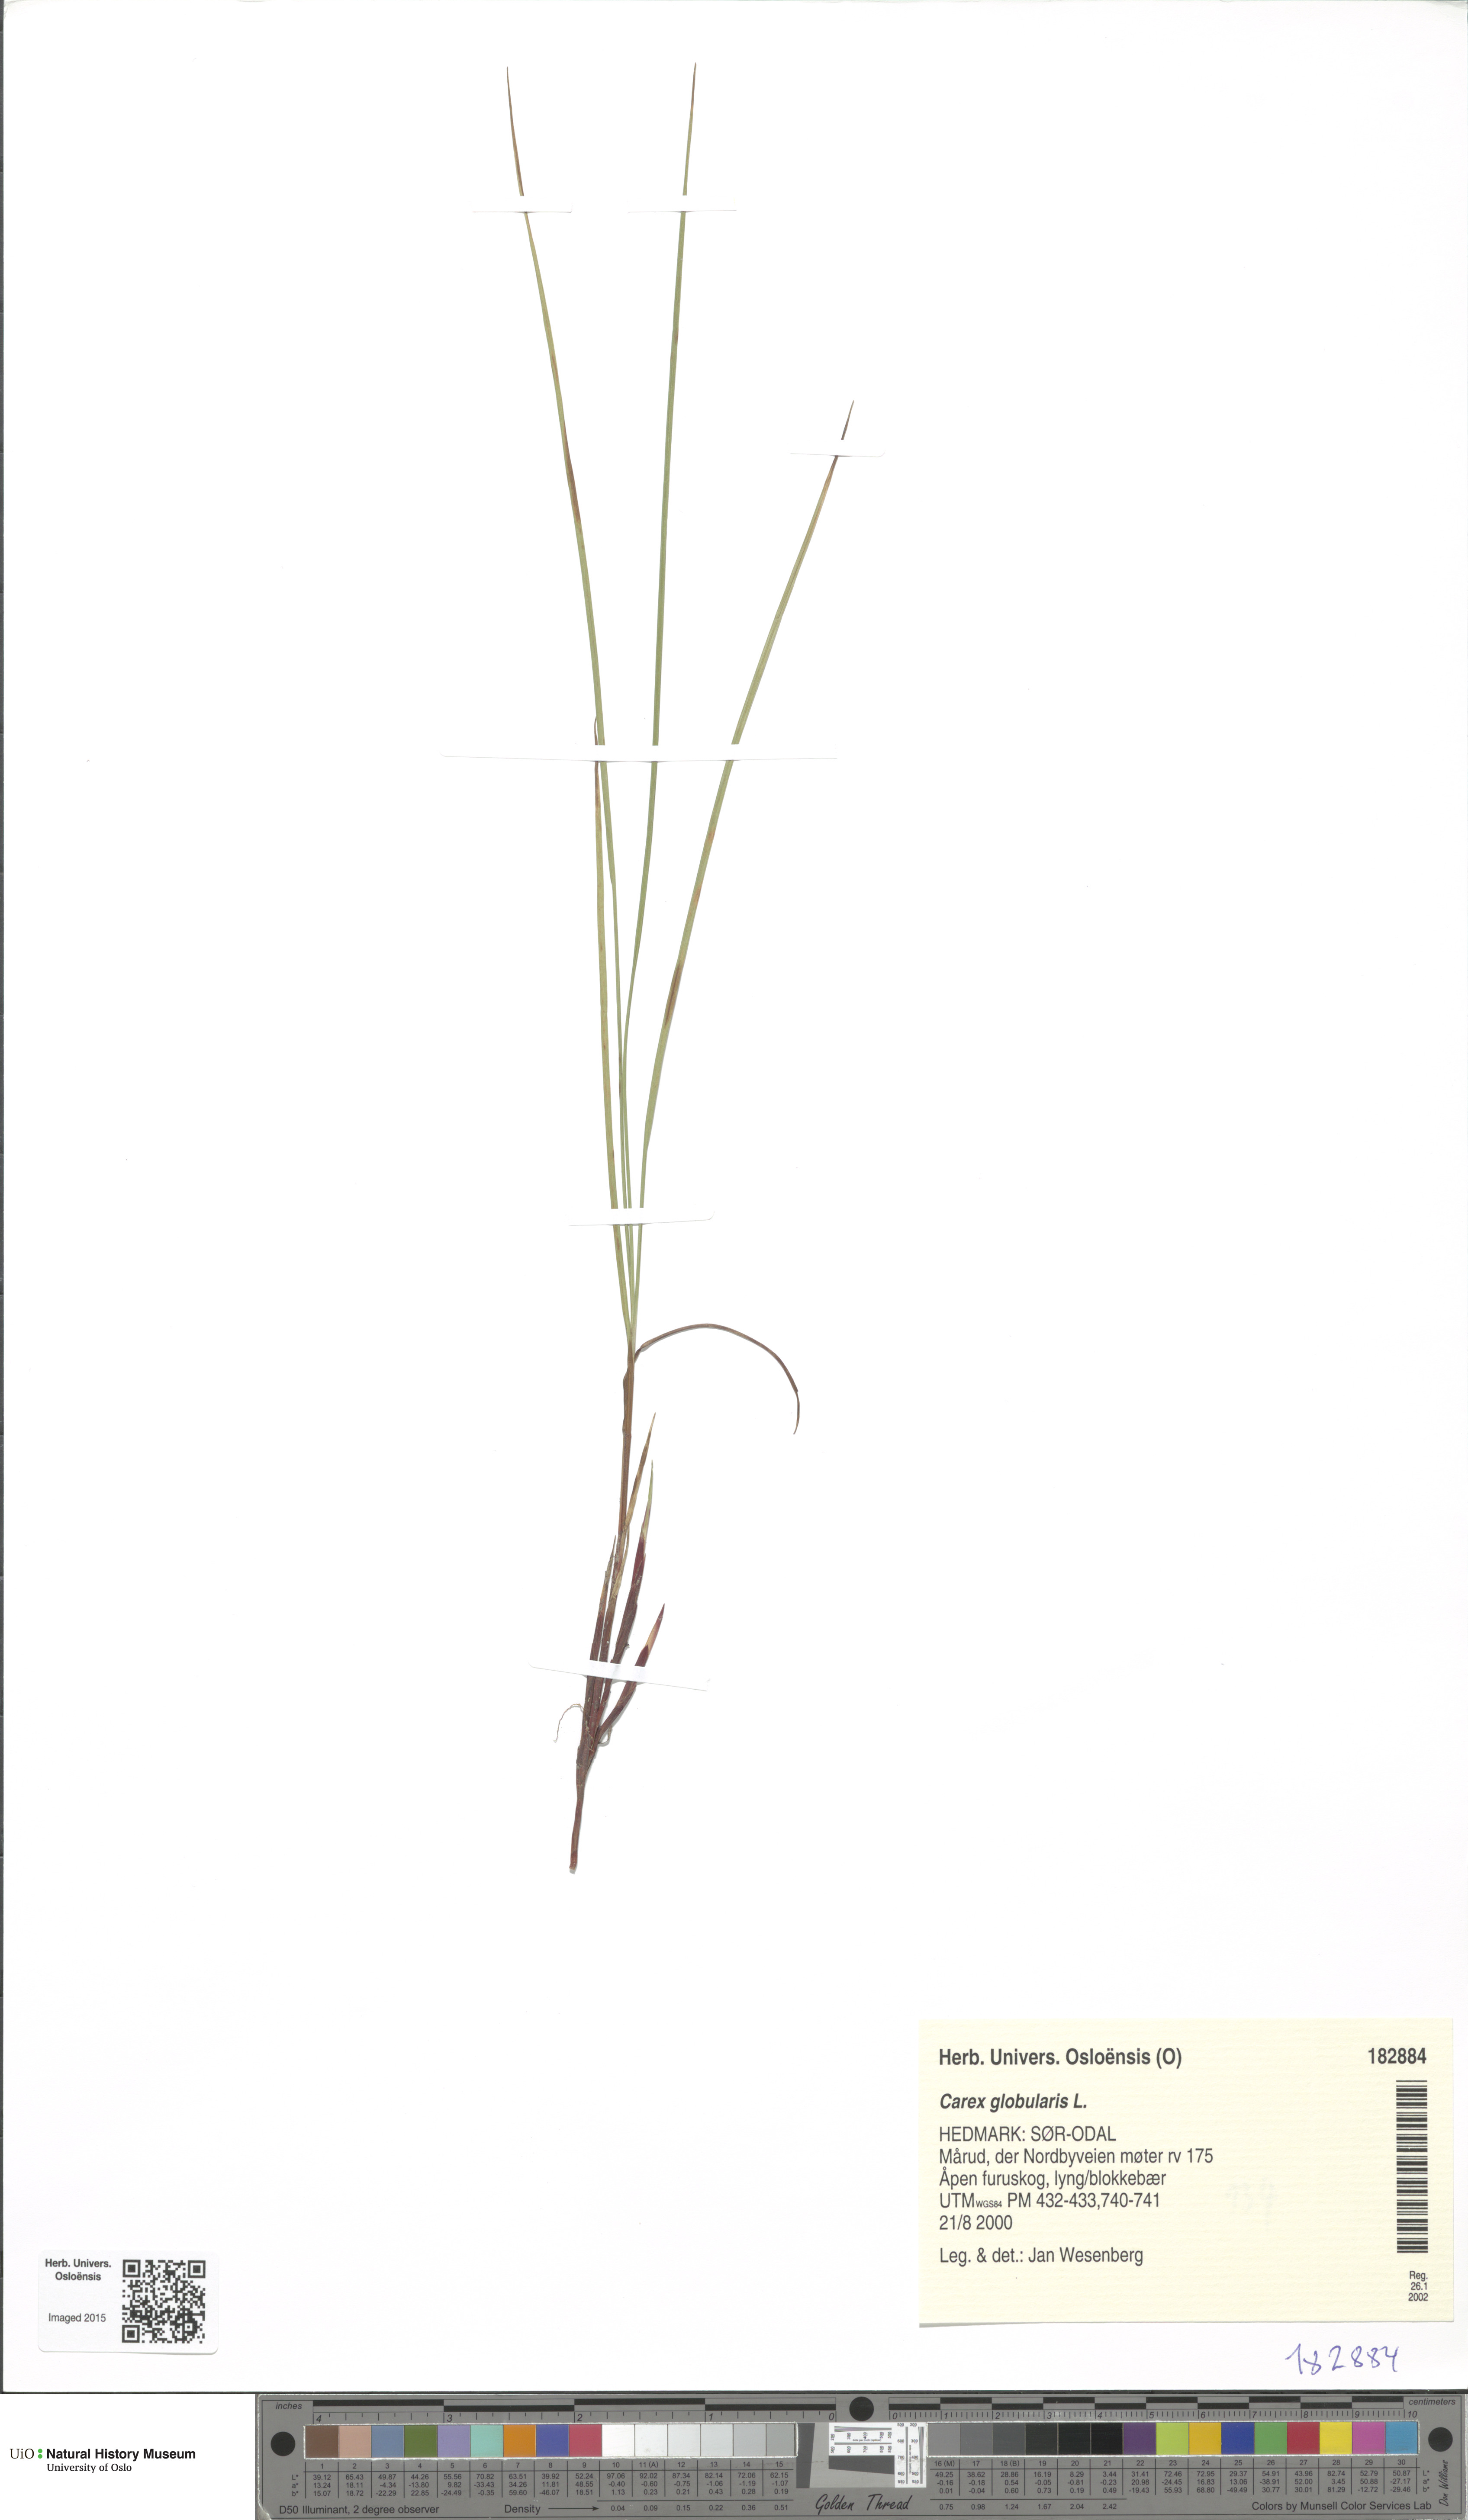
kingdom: Plantae
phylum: Tracheophyta
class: Liliopsida
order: Poales
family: Cyperaceae
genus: Carex
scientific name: Carex globularis
